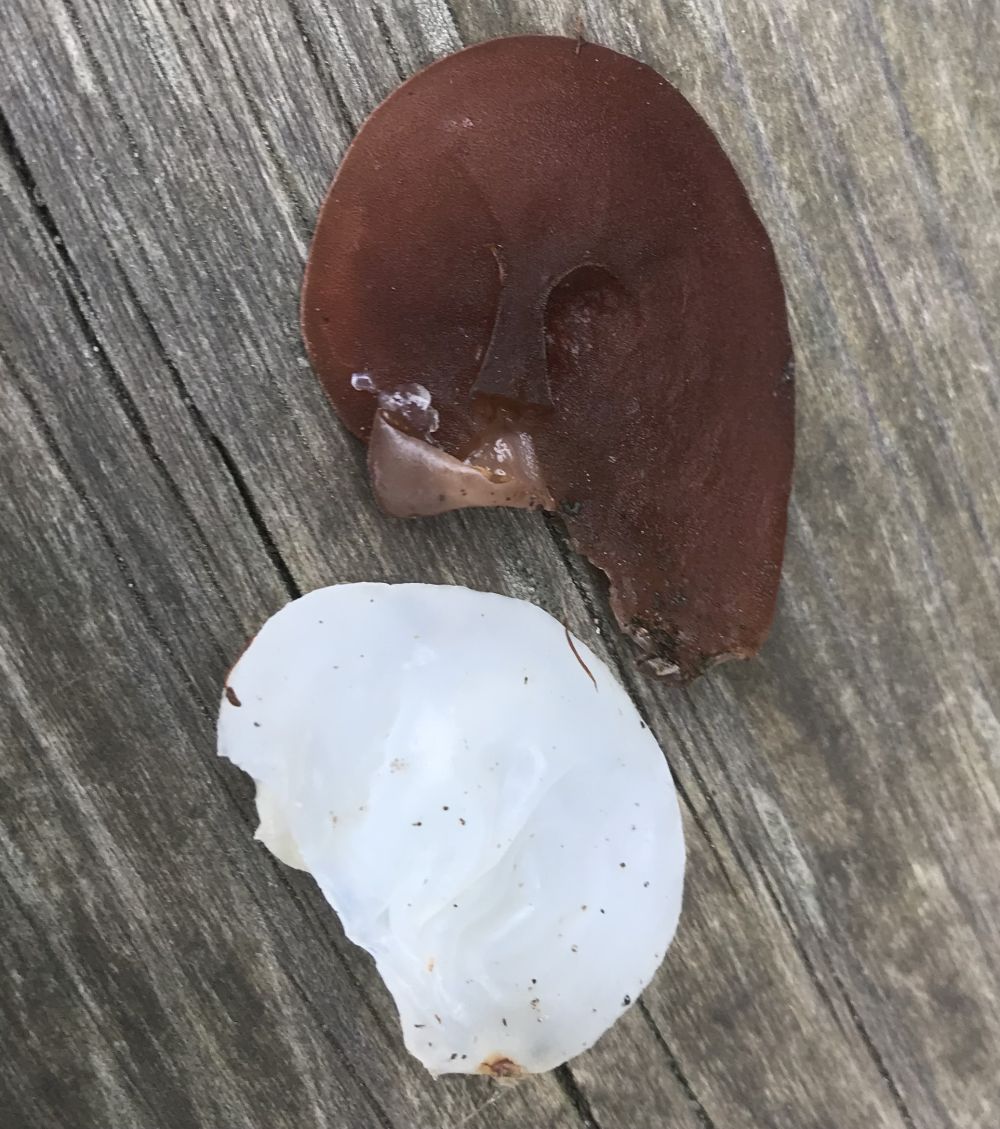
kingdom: Fungi
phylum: Basidiomycota
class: Agaricomycetes
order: Auriculariales
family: Auriculariaceae
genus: Auricularia
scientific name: Auricularia auricula-judae
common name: almindelig judasøre
